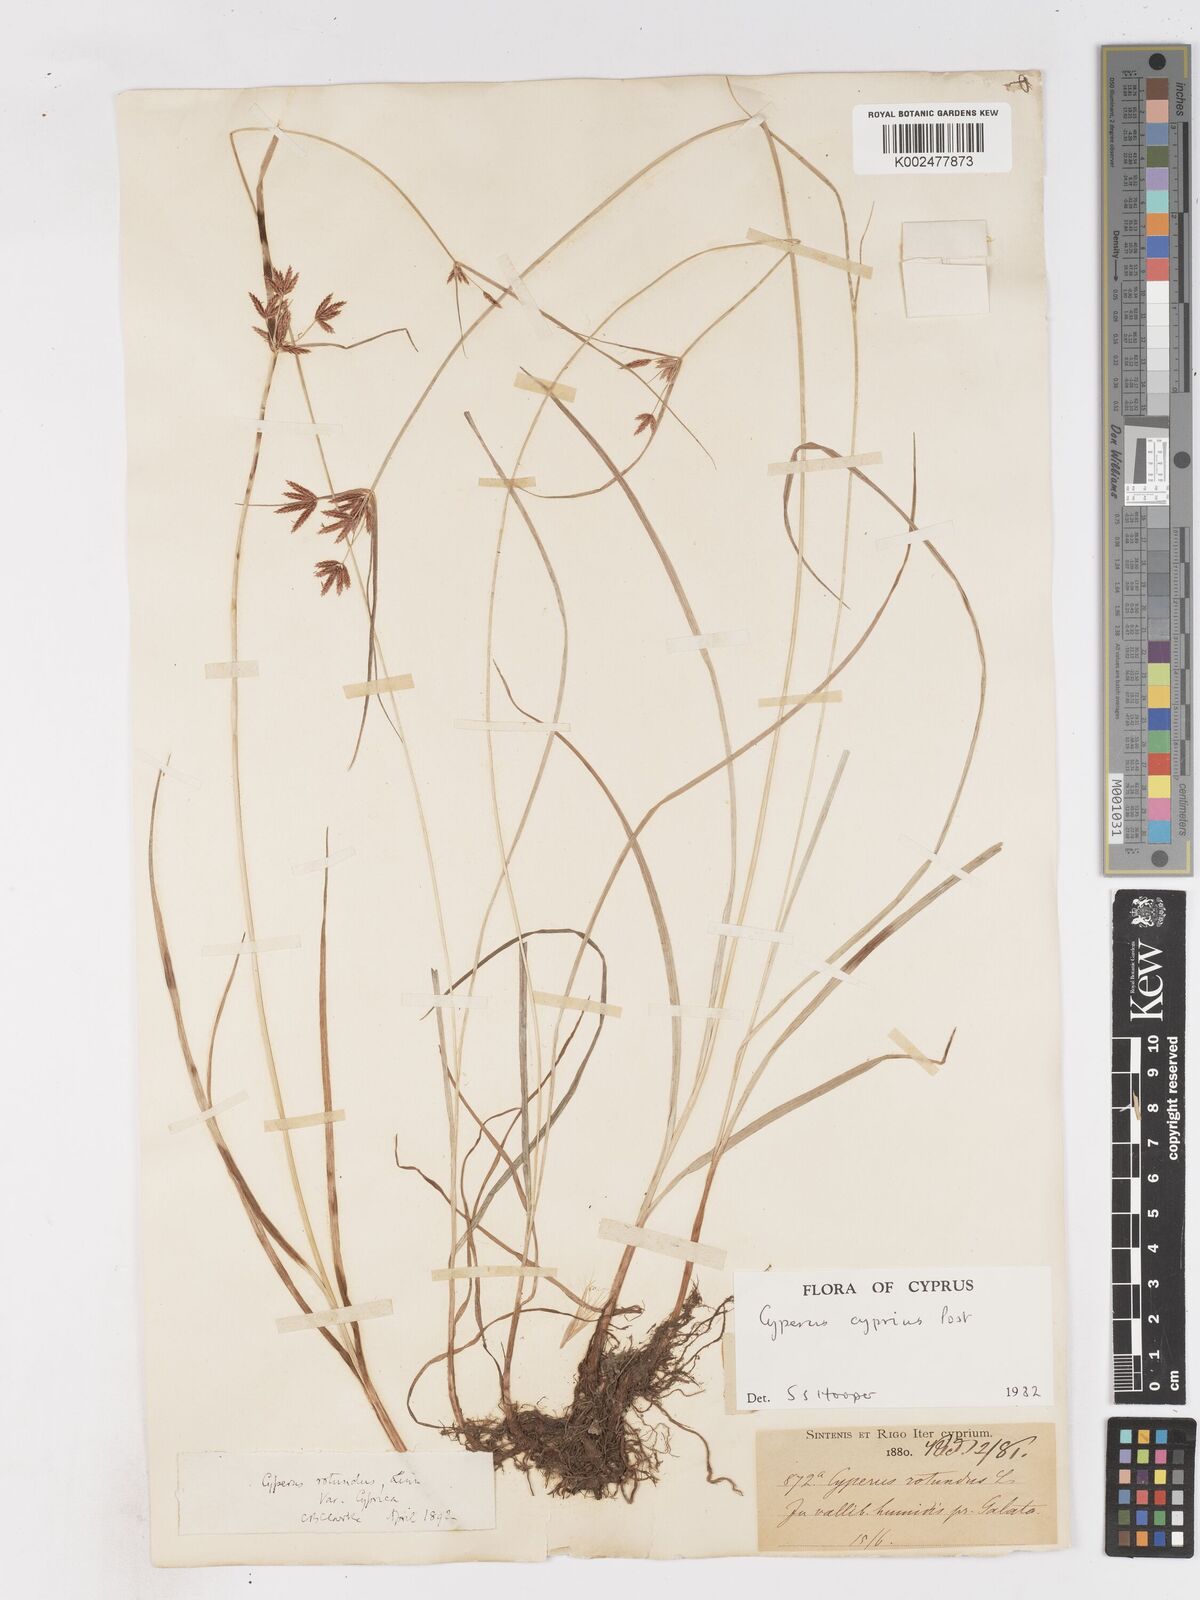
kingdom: Plantae
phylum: Tracheophyta
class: Liliopsida
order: Poales
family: Cyperaceae
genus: Cyperus
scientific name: Cyperus longus
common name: Galingale
